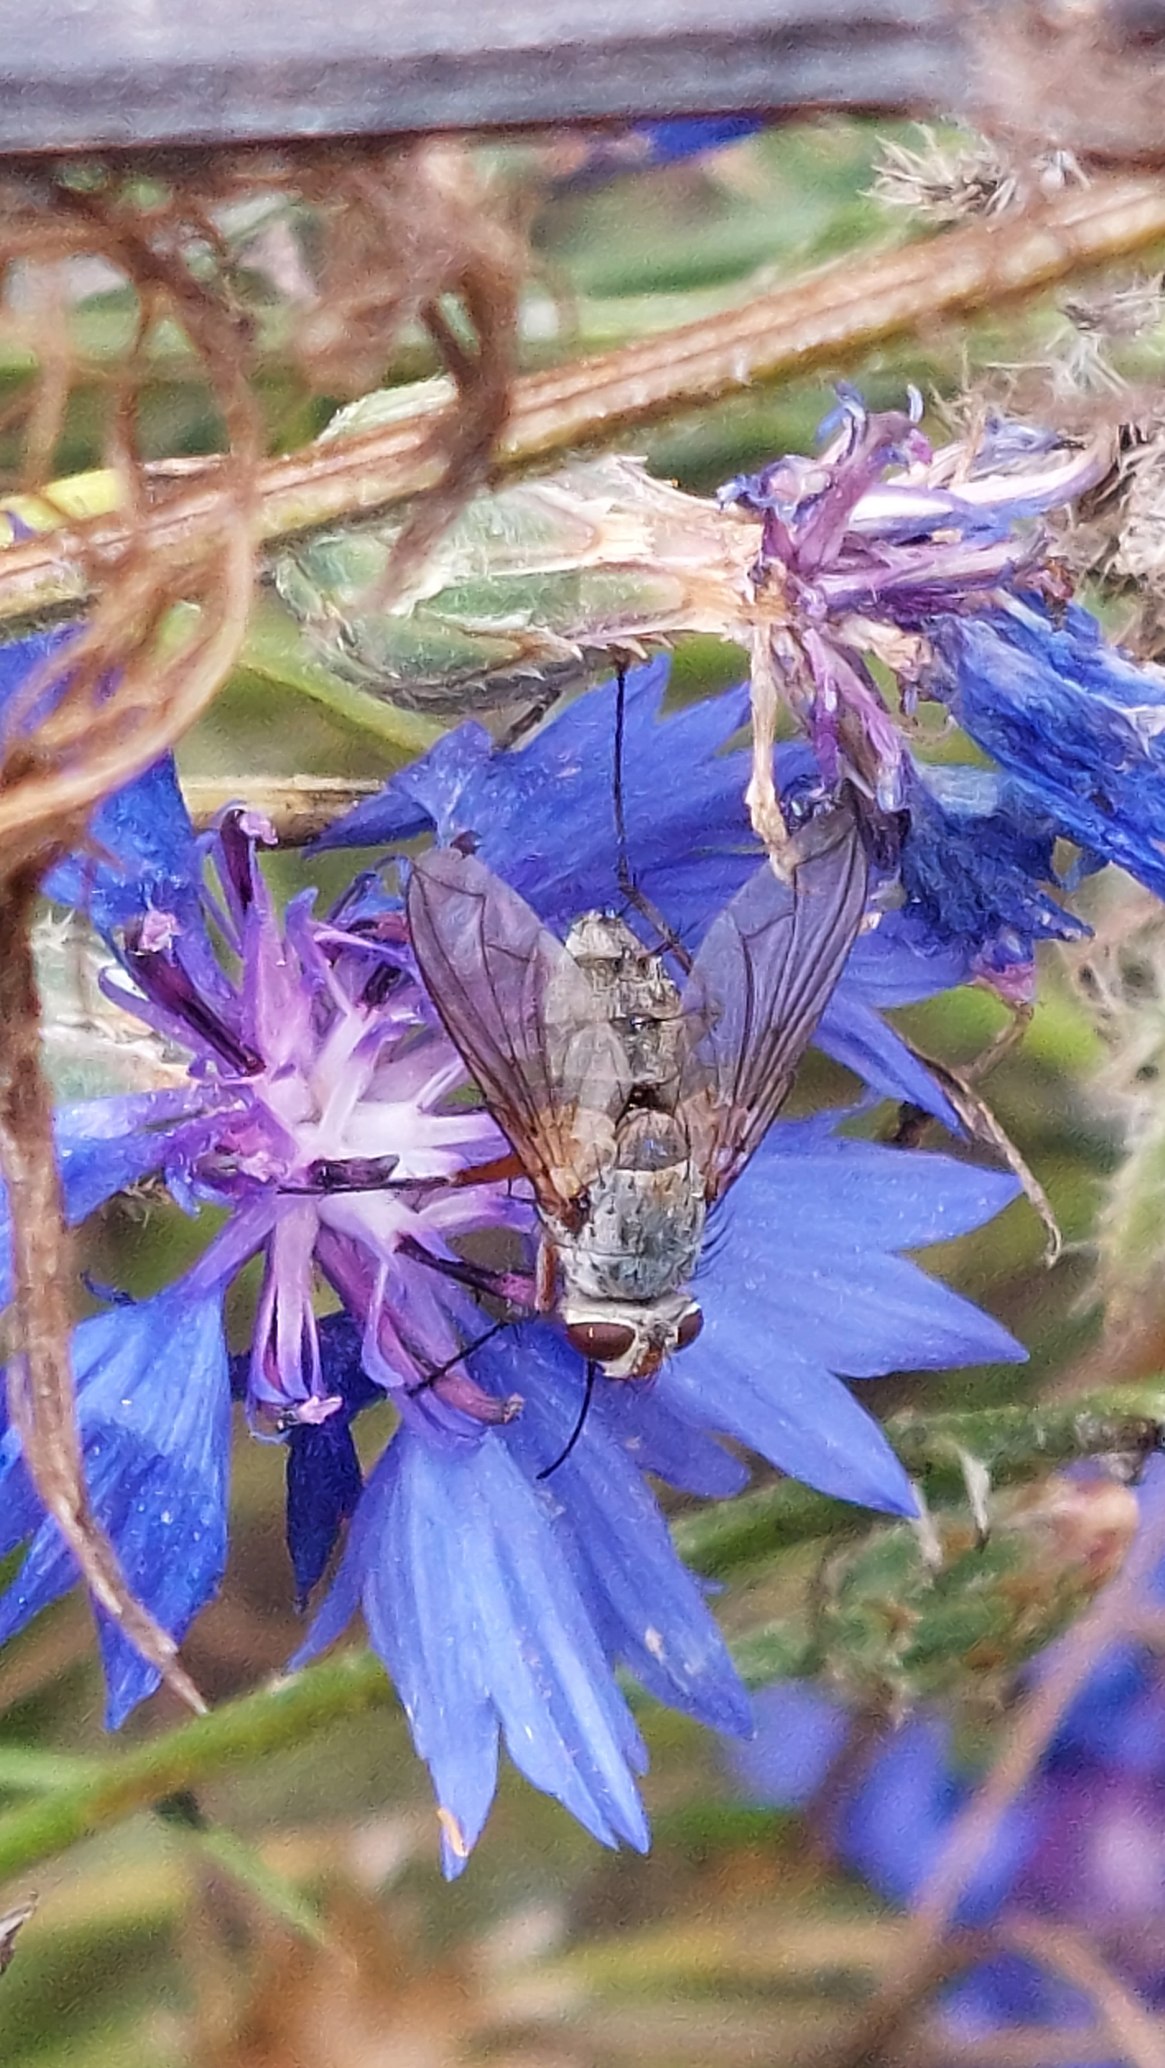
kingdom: Animalia
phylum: Arthropoda
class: Insecta
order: Diptera
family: Tachinidae
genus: Prosena
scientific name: Prosena siberita
